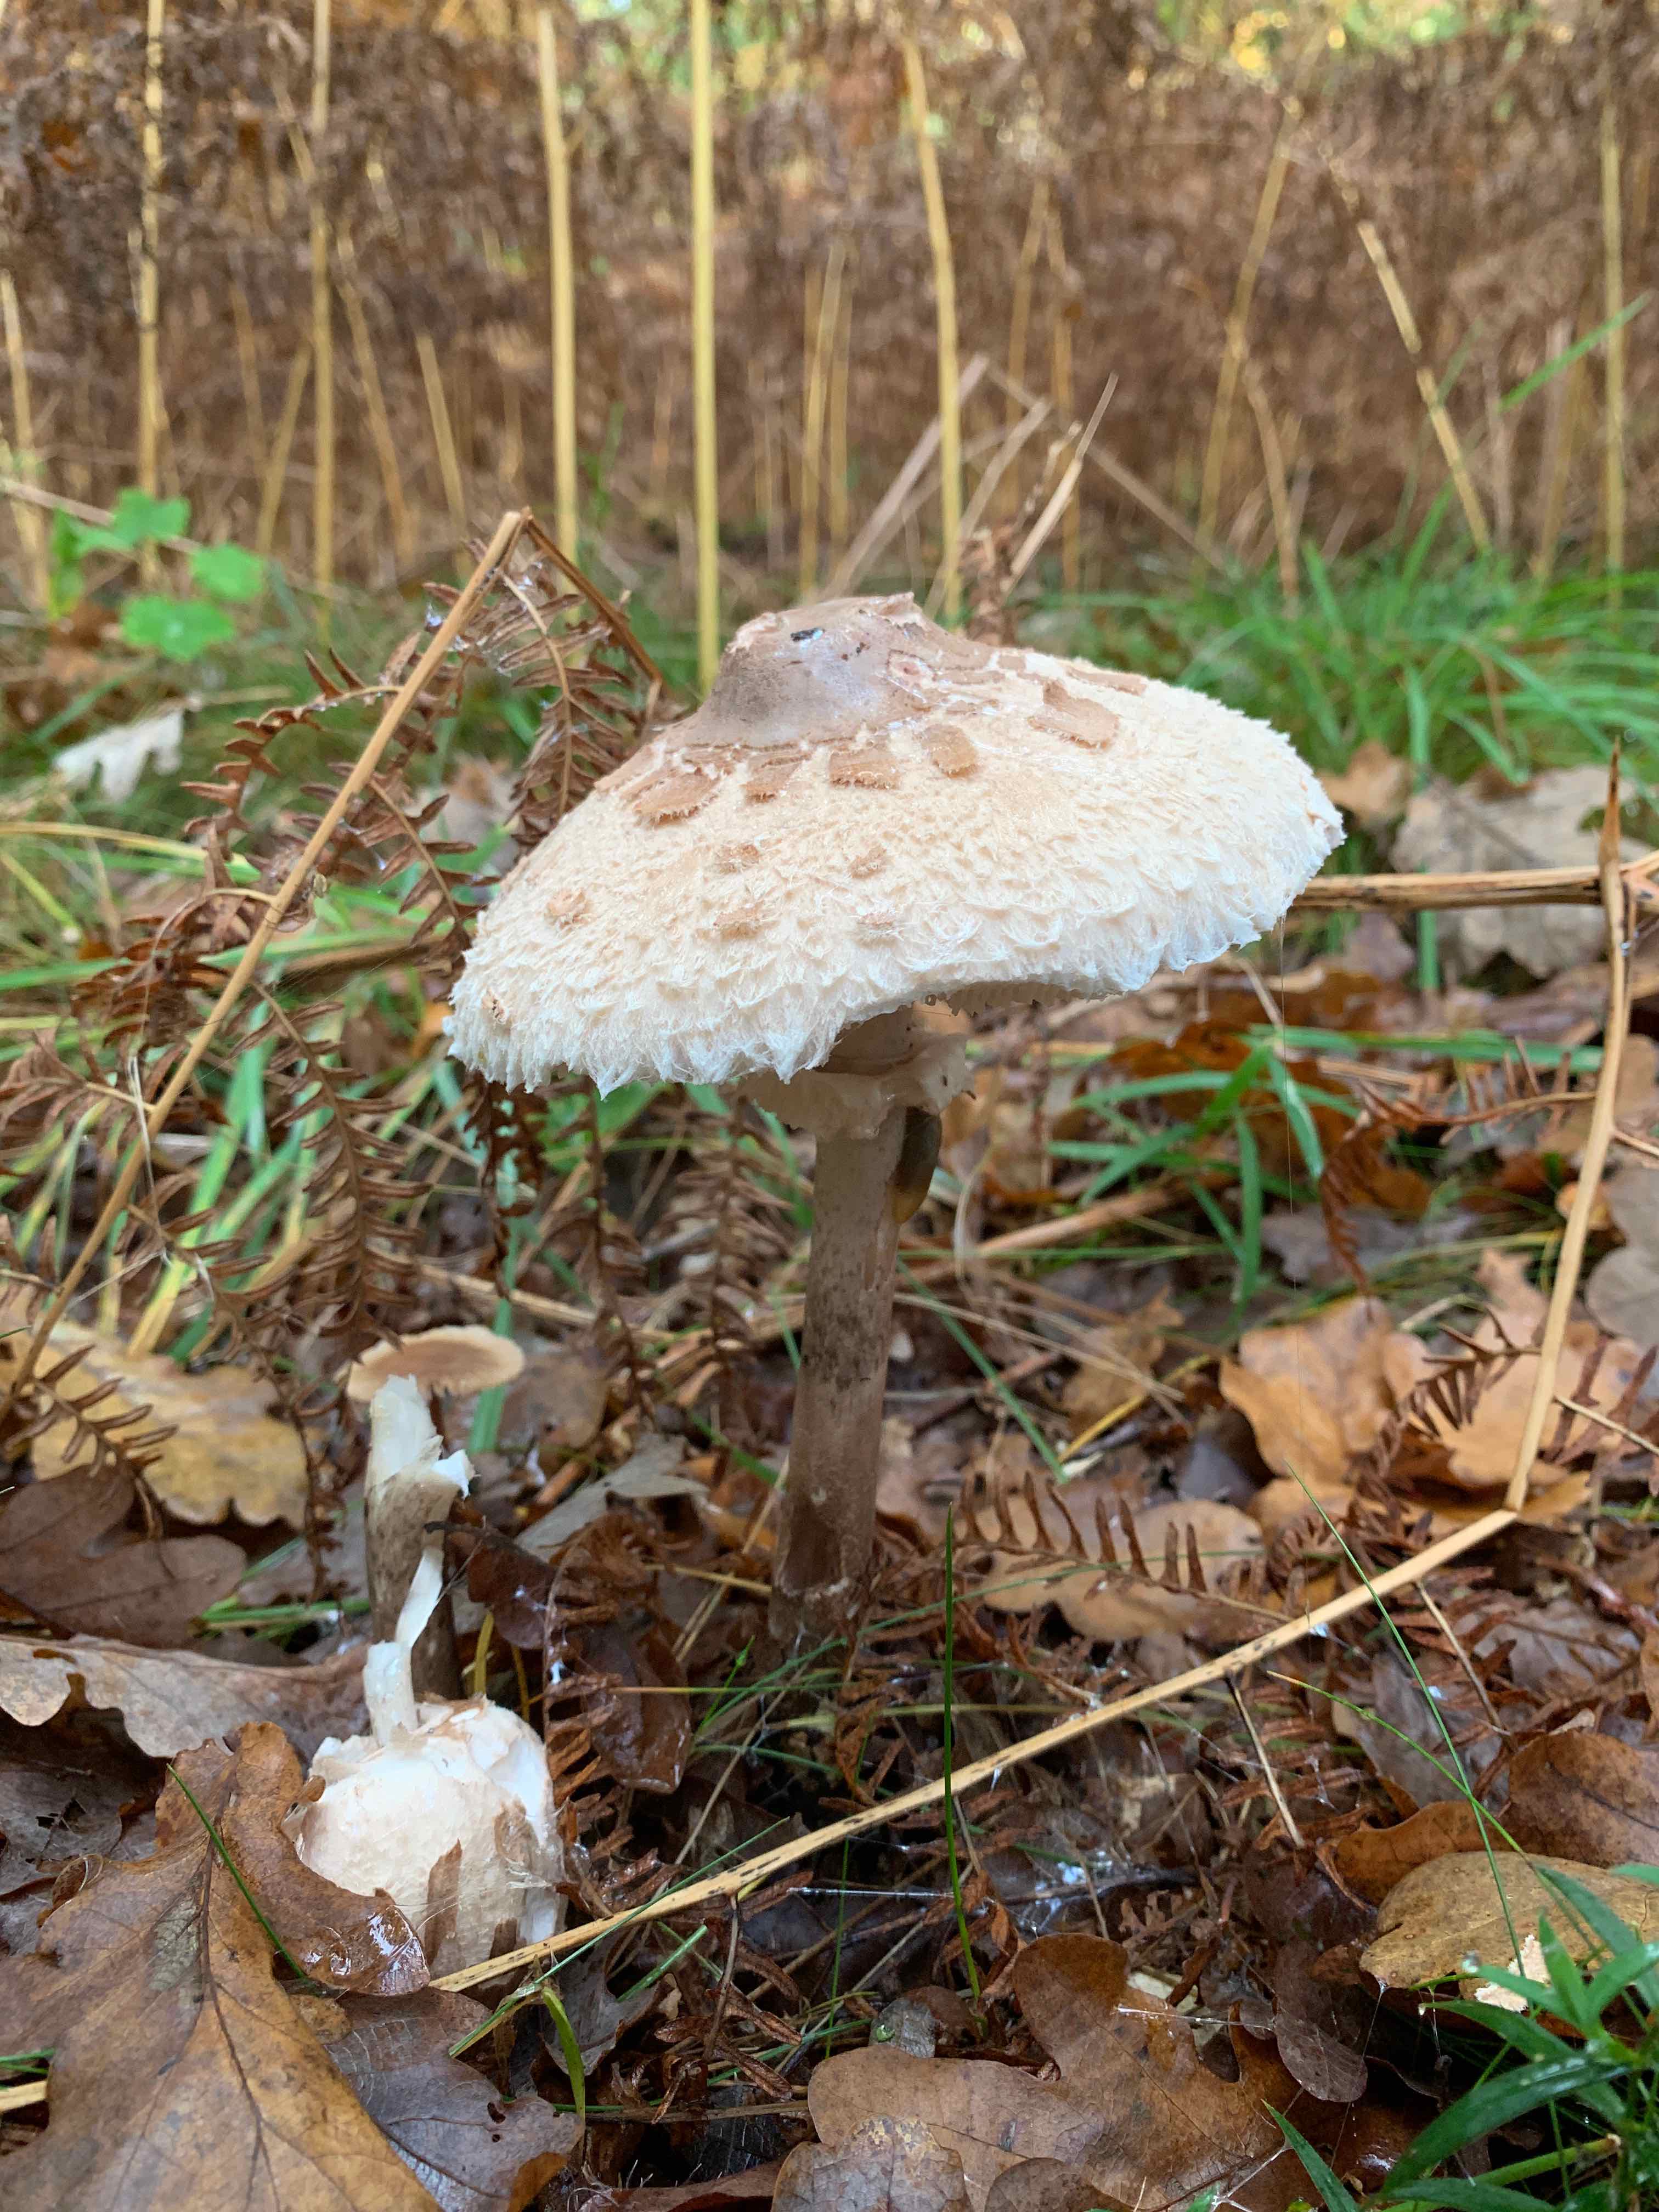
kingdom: Fungi
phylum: Basidiomycota
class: Agaricomycetes
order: Agaricales
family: Agaricaceae
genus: Macrolepiota
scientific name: Macrolepiota fuliginosa
